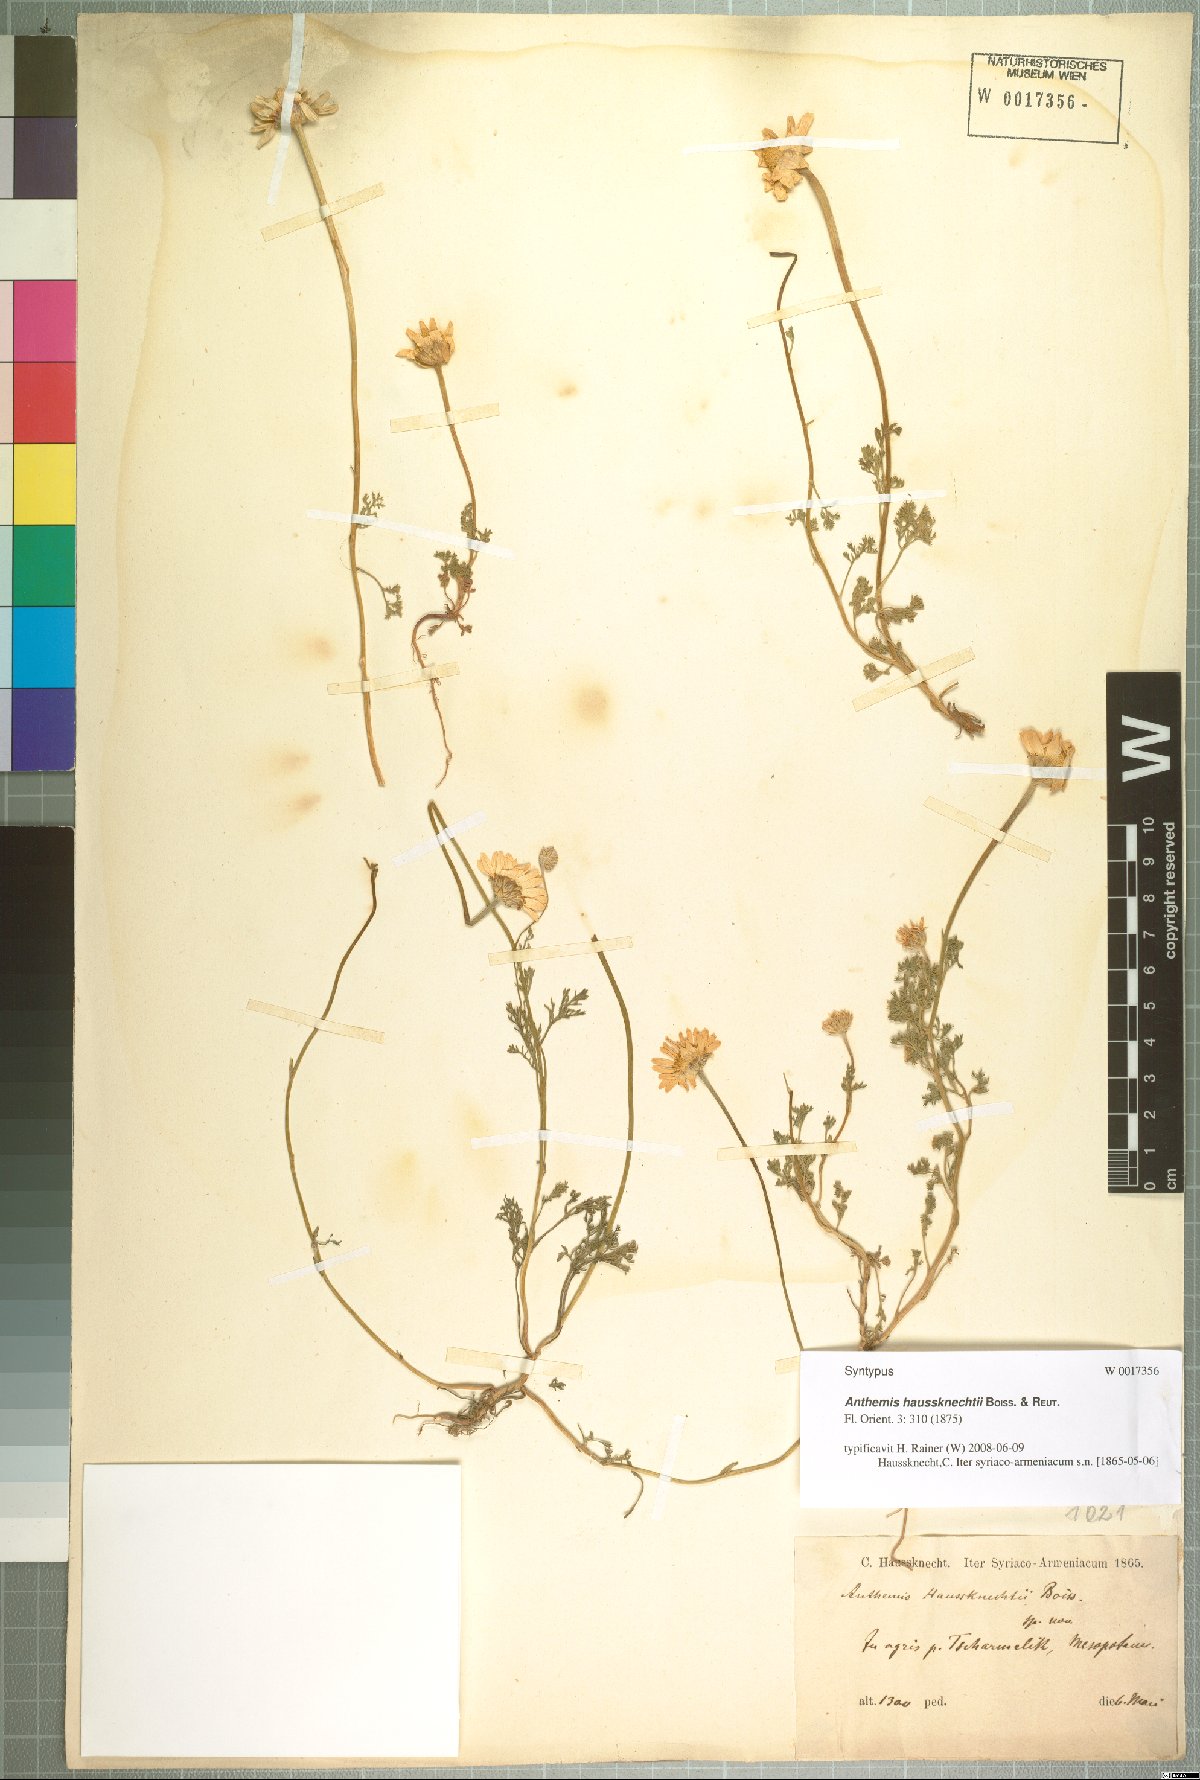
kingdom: Plantae
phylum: Tracheophyta
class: Magnoliopsida
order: Asterales
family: Asteraceae
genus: Anthemis
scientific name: Anthemis haussknechtii
